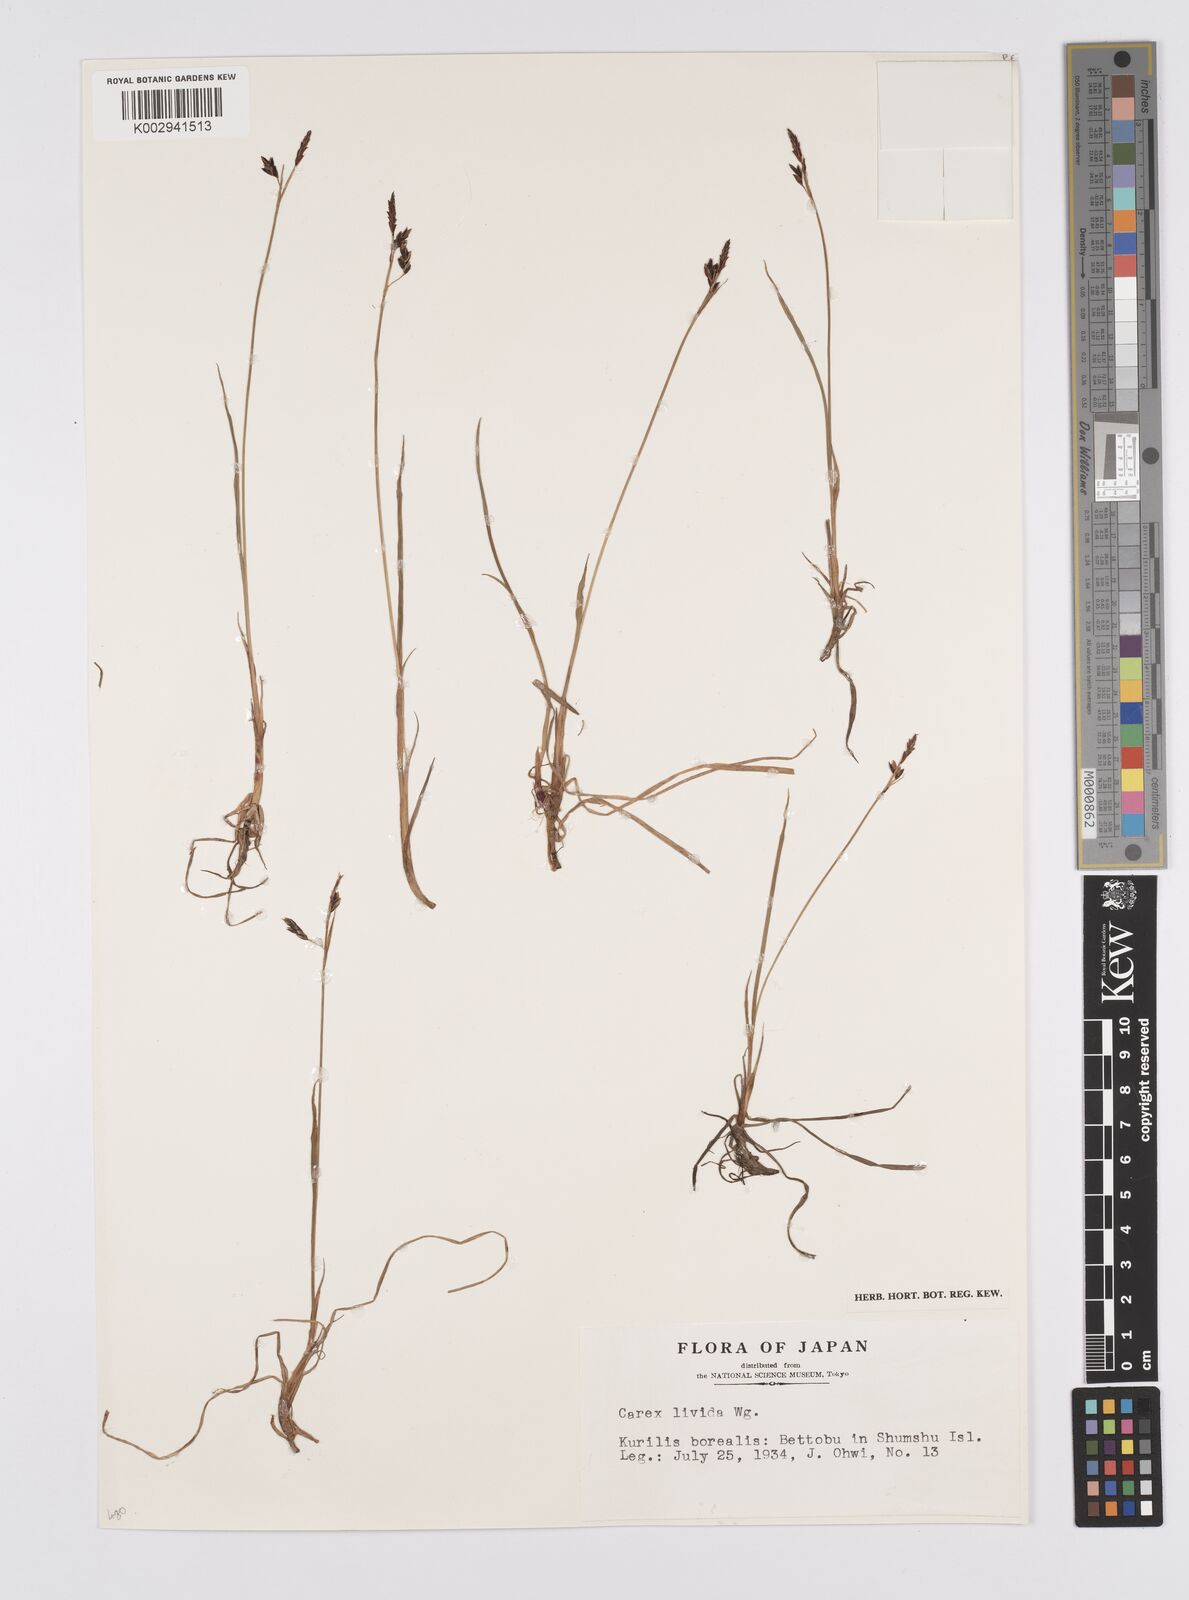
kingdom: Plantae
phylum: Tracheophyta
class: Liliopsida
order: Poales
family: Cyperaceae
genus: Carex
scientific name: Carex livida
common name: Livid sedge
